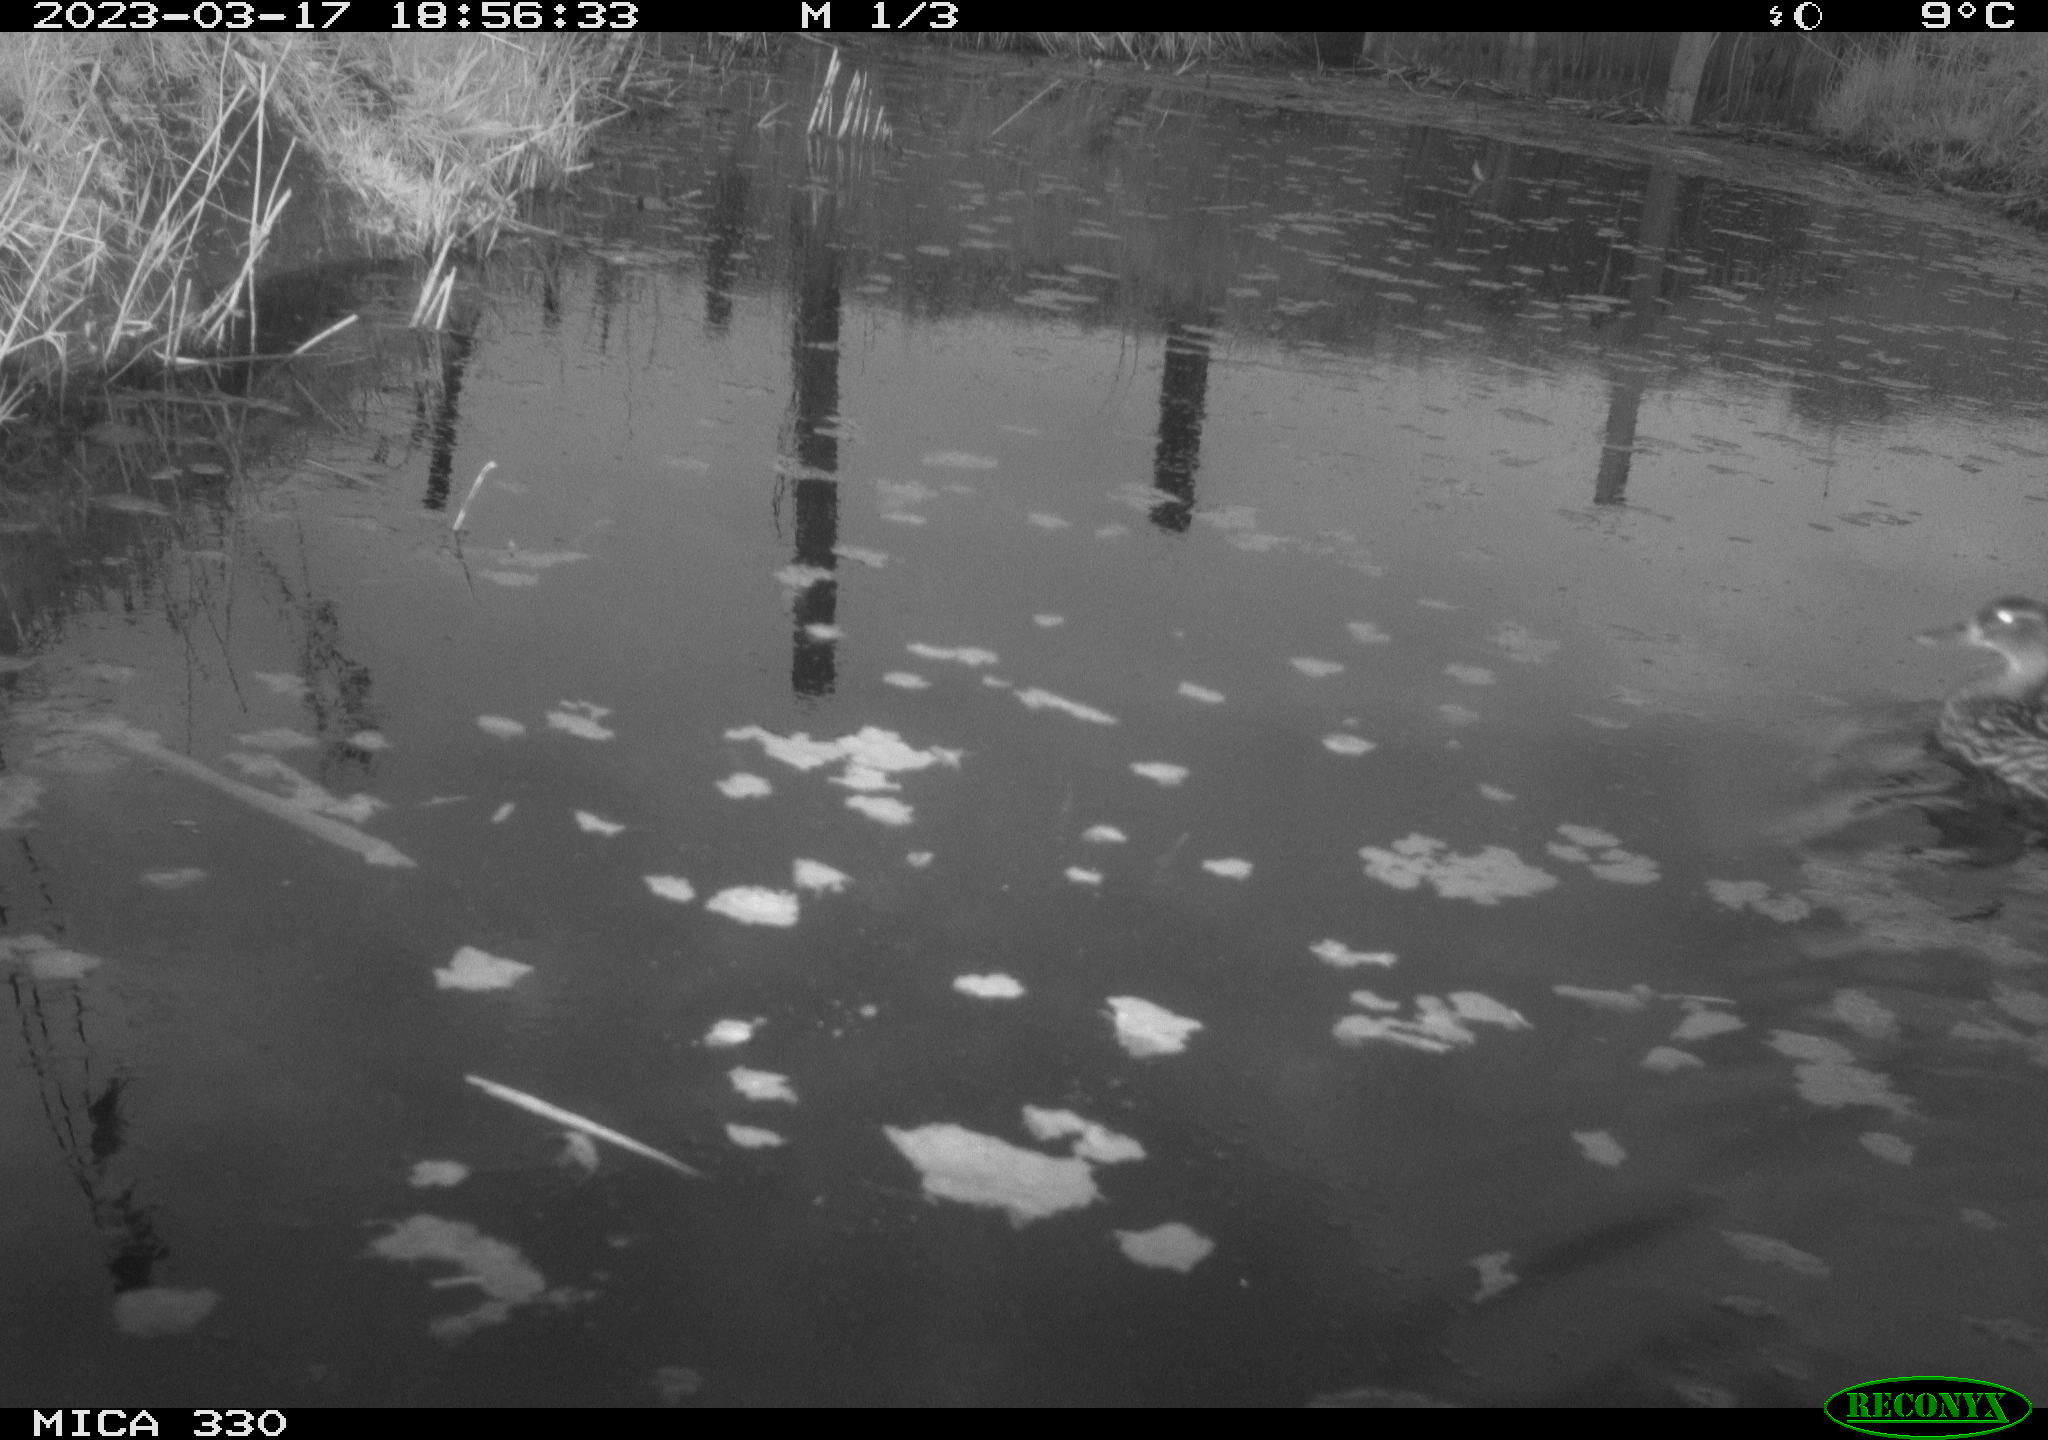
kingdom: Animalia
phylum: Chordata
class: Aves
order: Anseriformes
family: Anatidae
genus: Anas
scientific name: Anas
